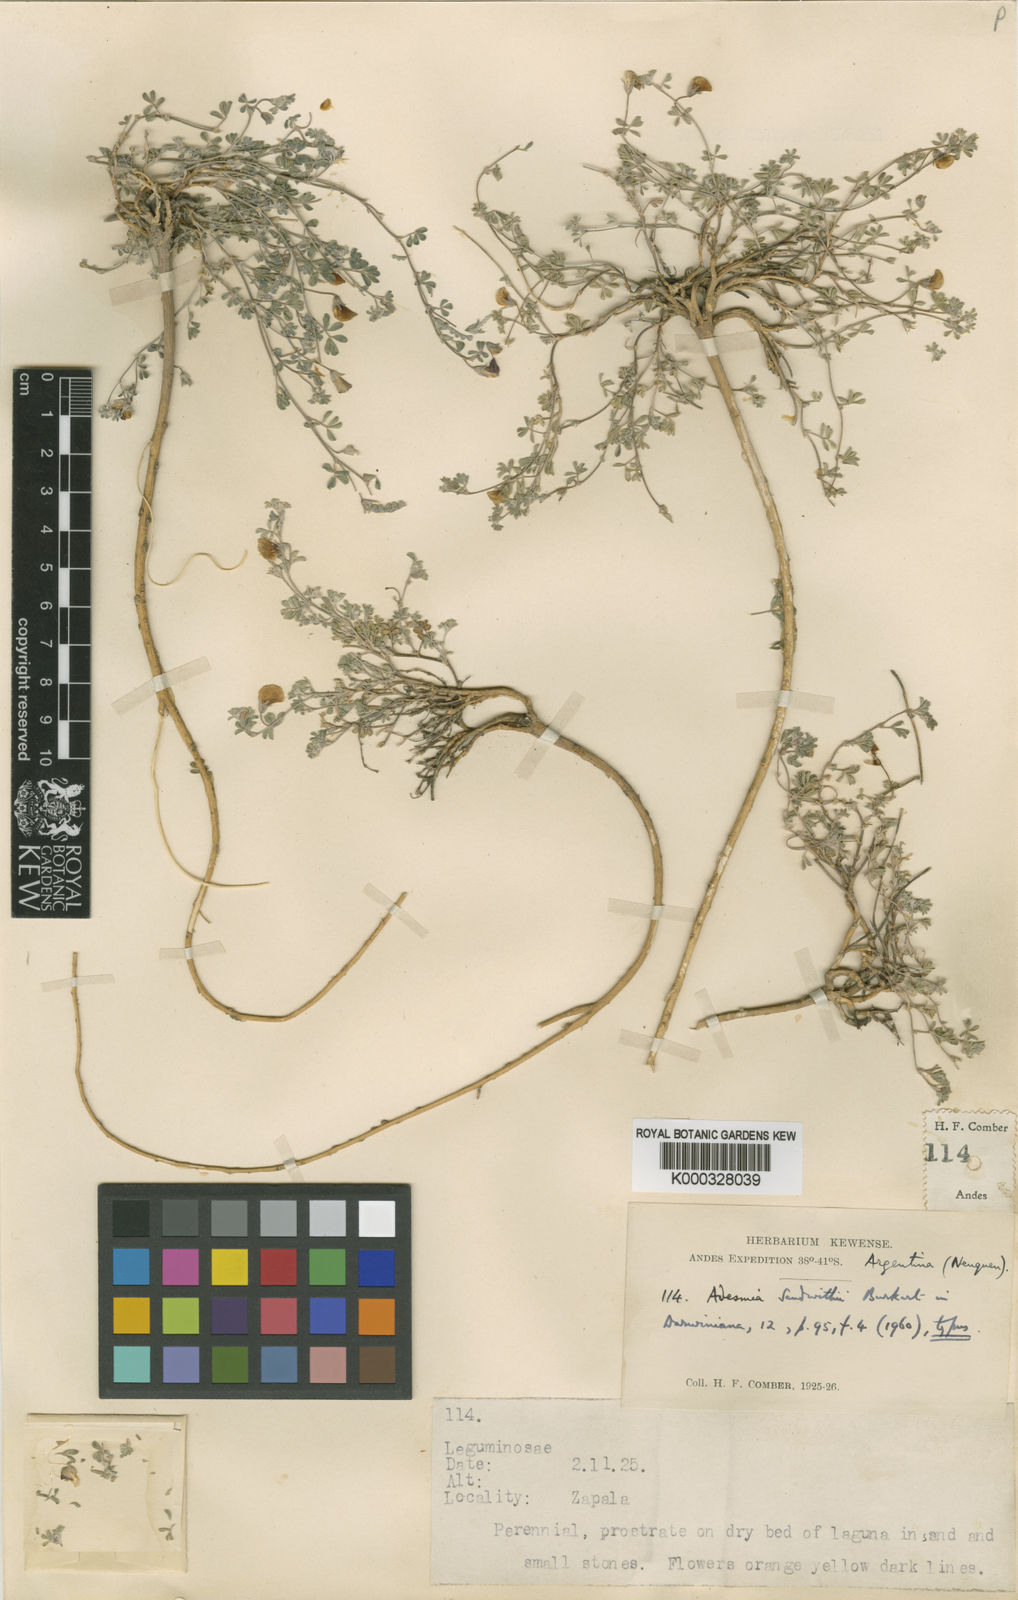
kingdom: Plantae
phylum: Tracheophyta
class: Magnoliopsida
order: Fabales
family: Fabaceae
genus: Adesmia
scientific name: Adesmia sandwithii
